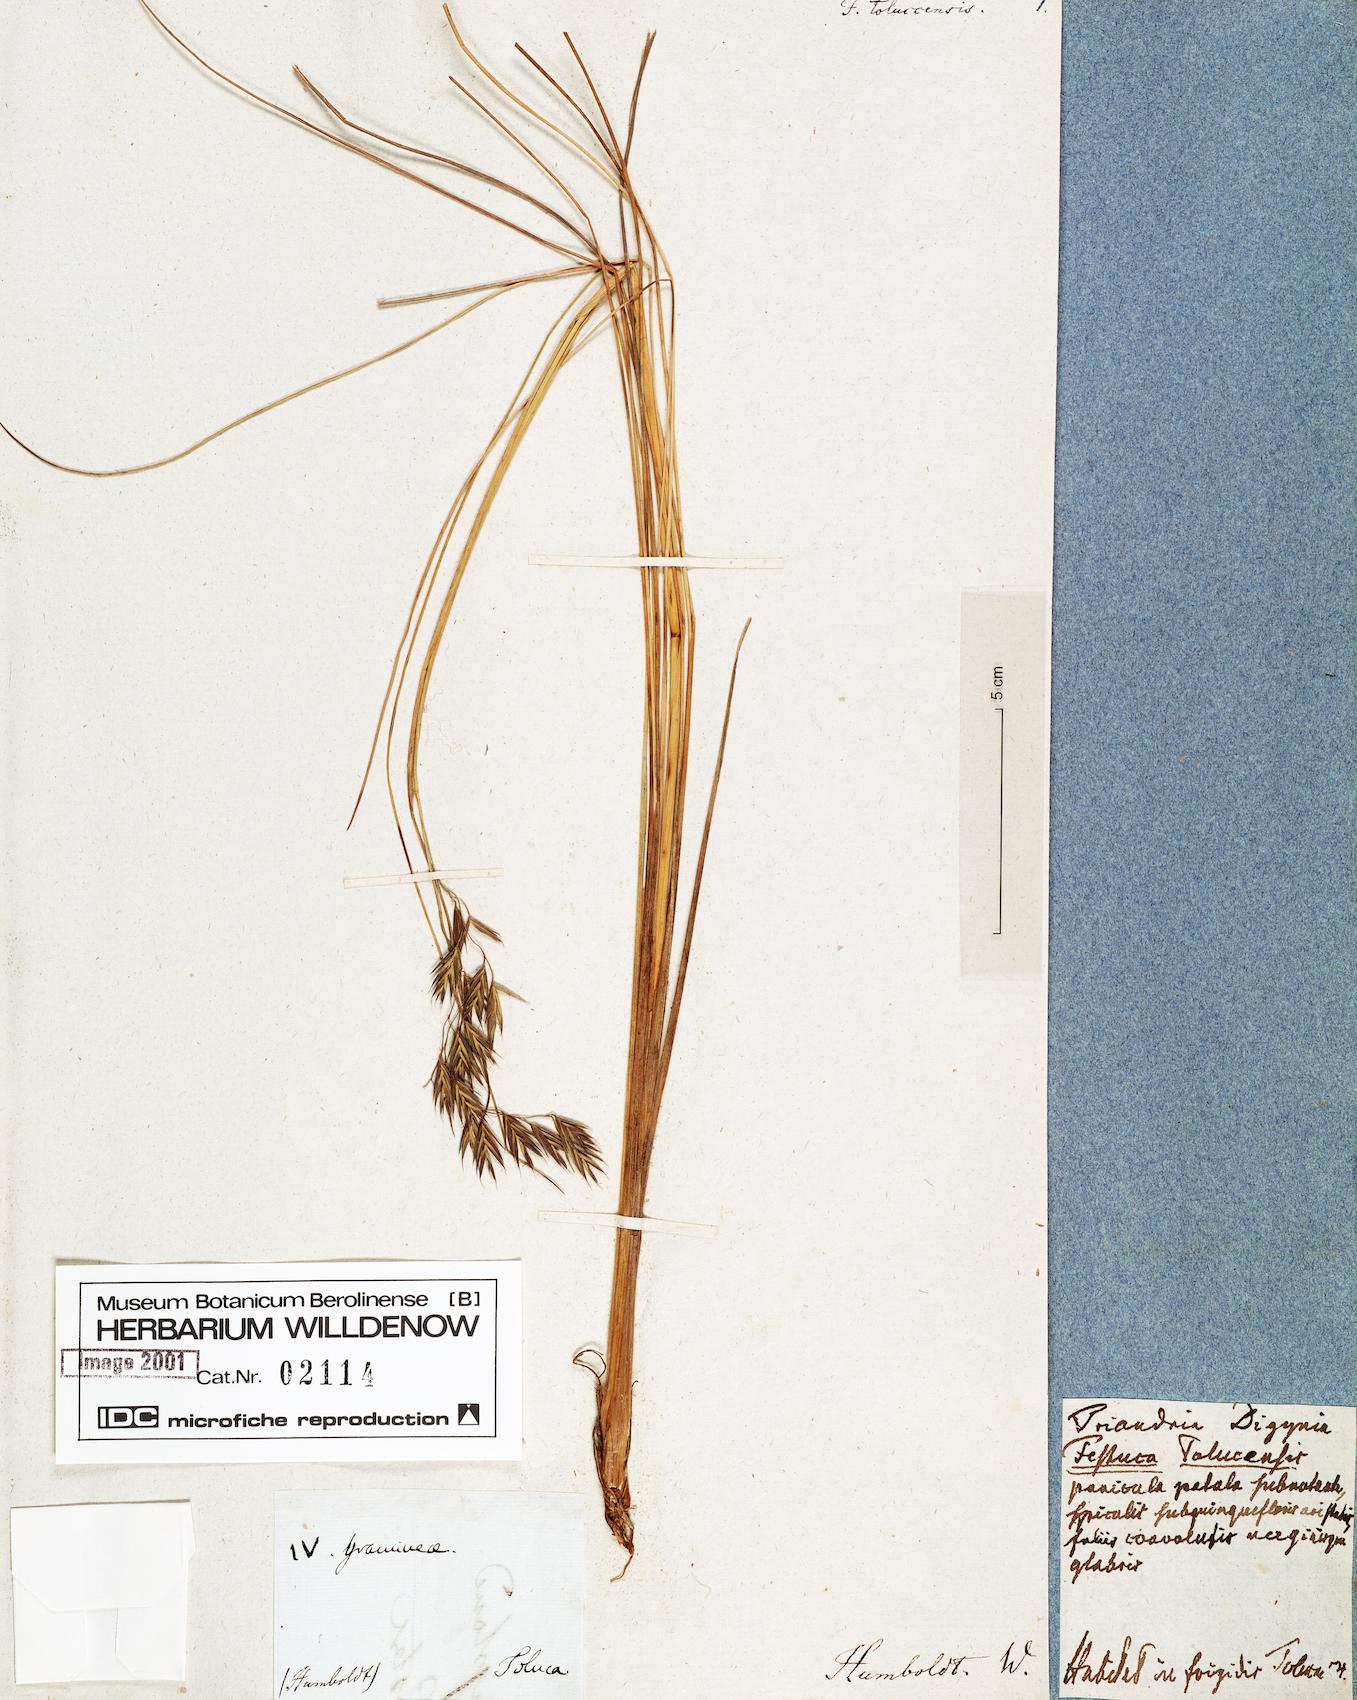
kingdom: Plantae
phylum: Tracheophyta
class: Liliopsida
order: Poales
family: Poaceae
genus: Festuca
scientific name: Festuca tolucensis
